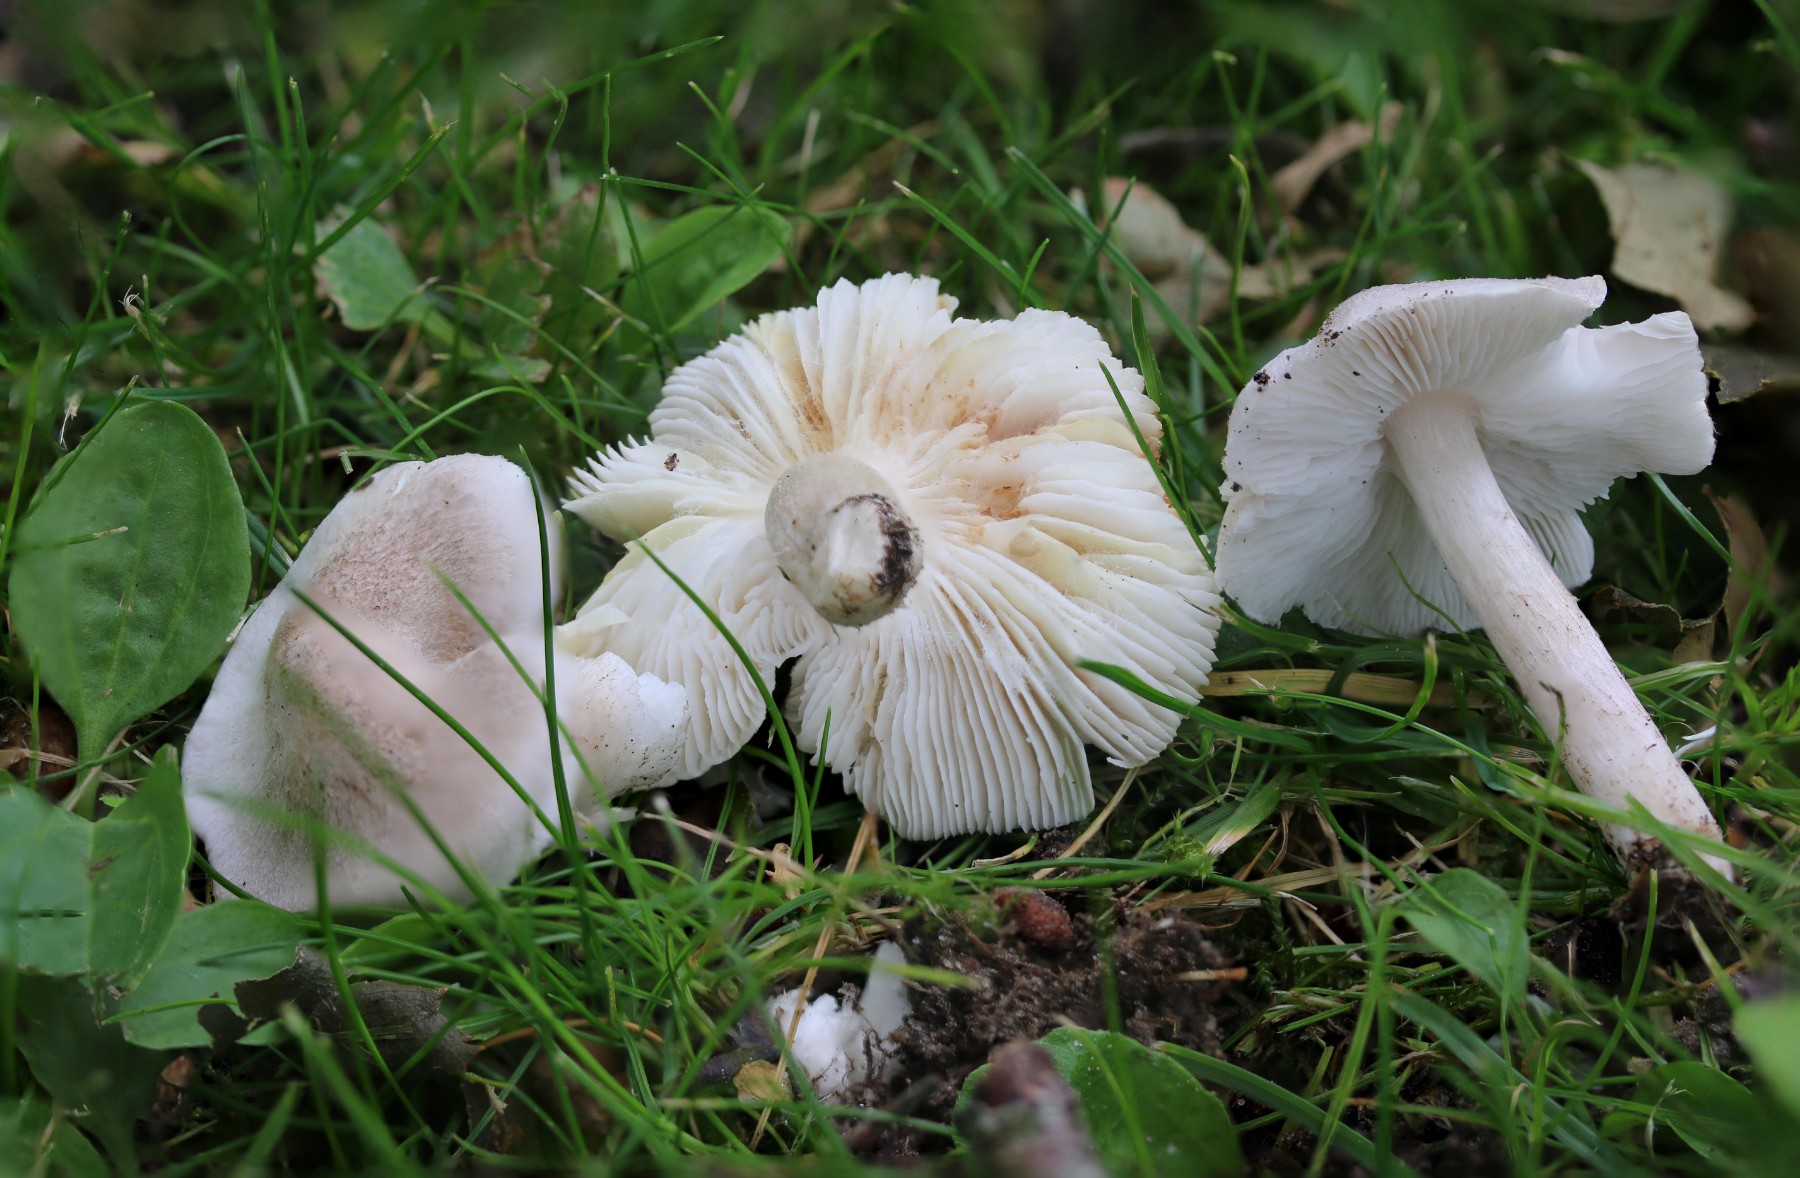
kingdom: Fungi
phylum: Basidiomycota
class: Agaricomycetes
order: Agaricales
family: Tricholomataceae
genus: Tricholoma
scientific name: Tricholoma argyraceum
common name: spids ridderhat
